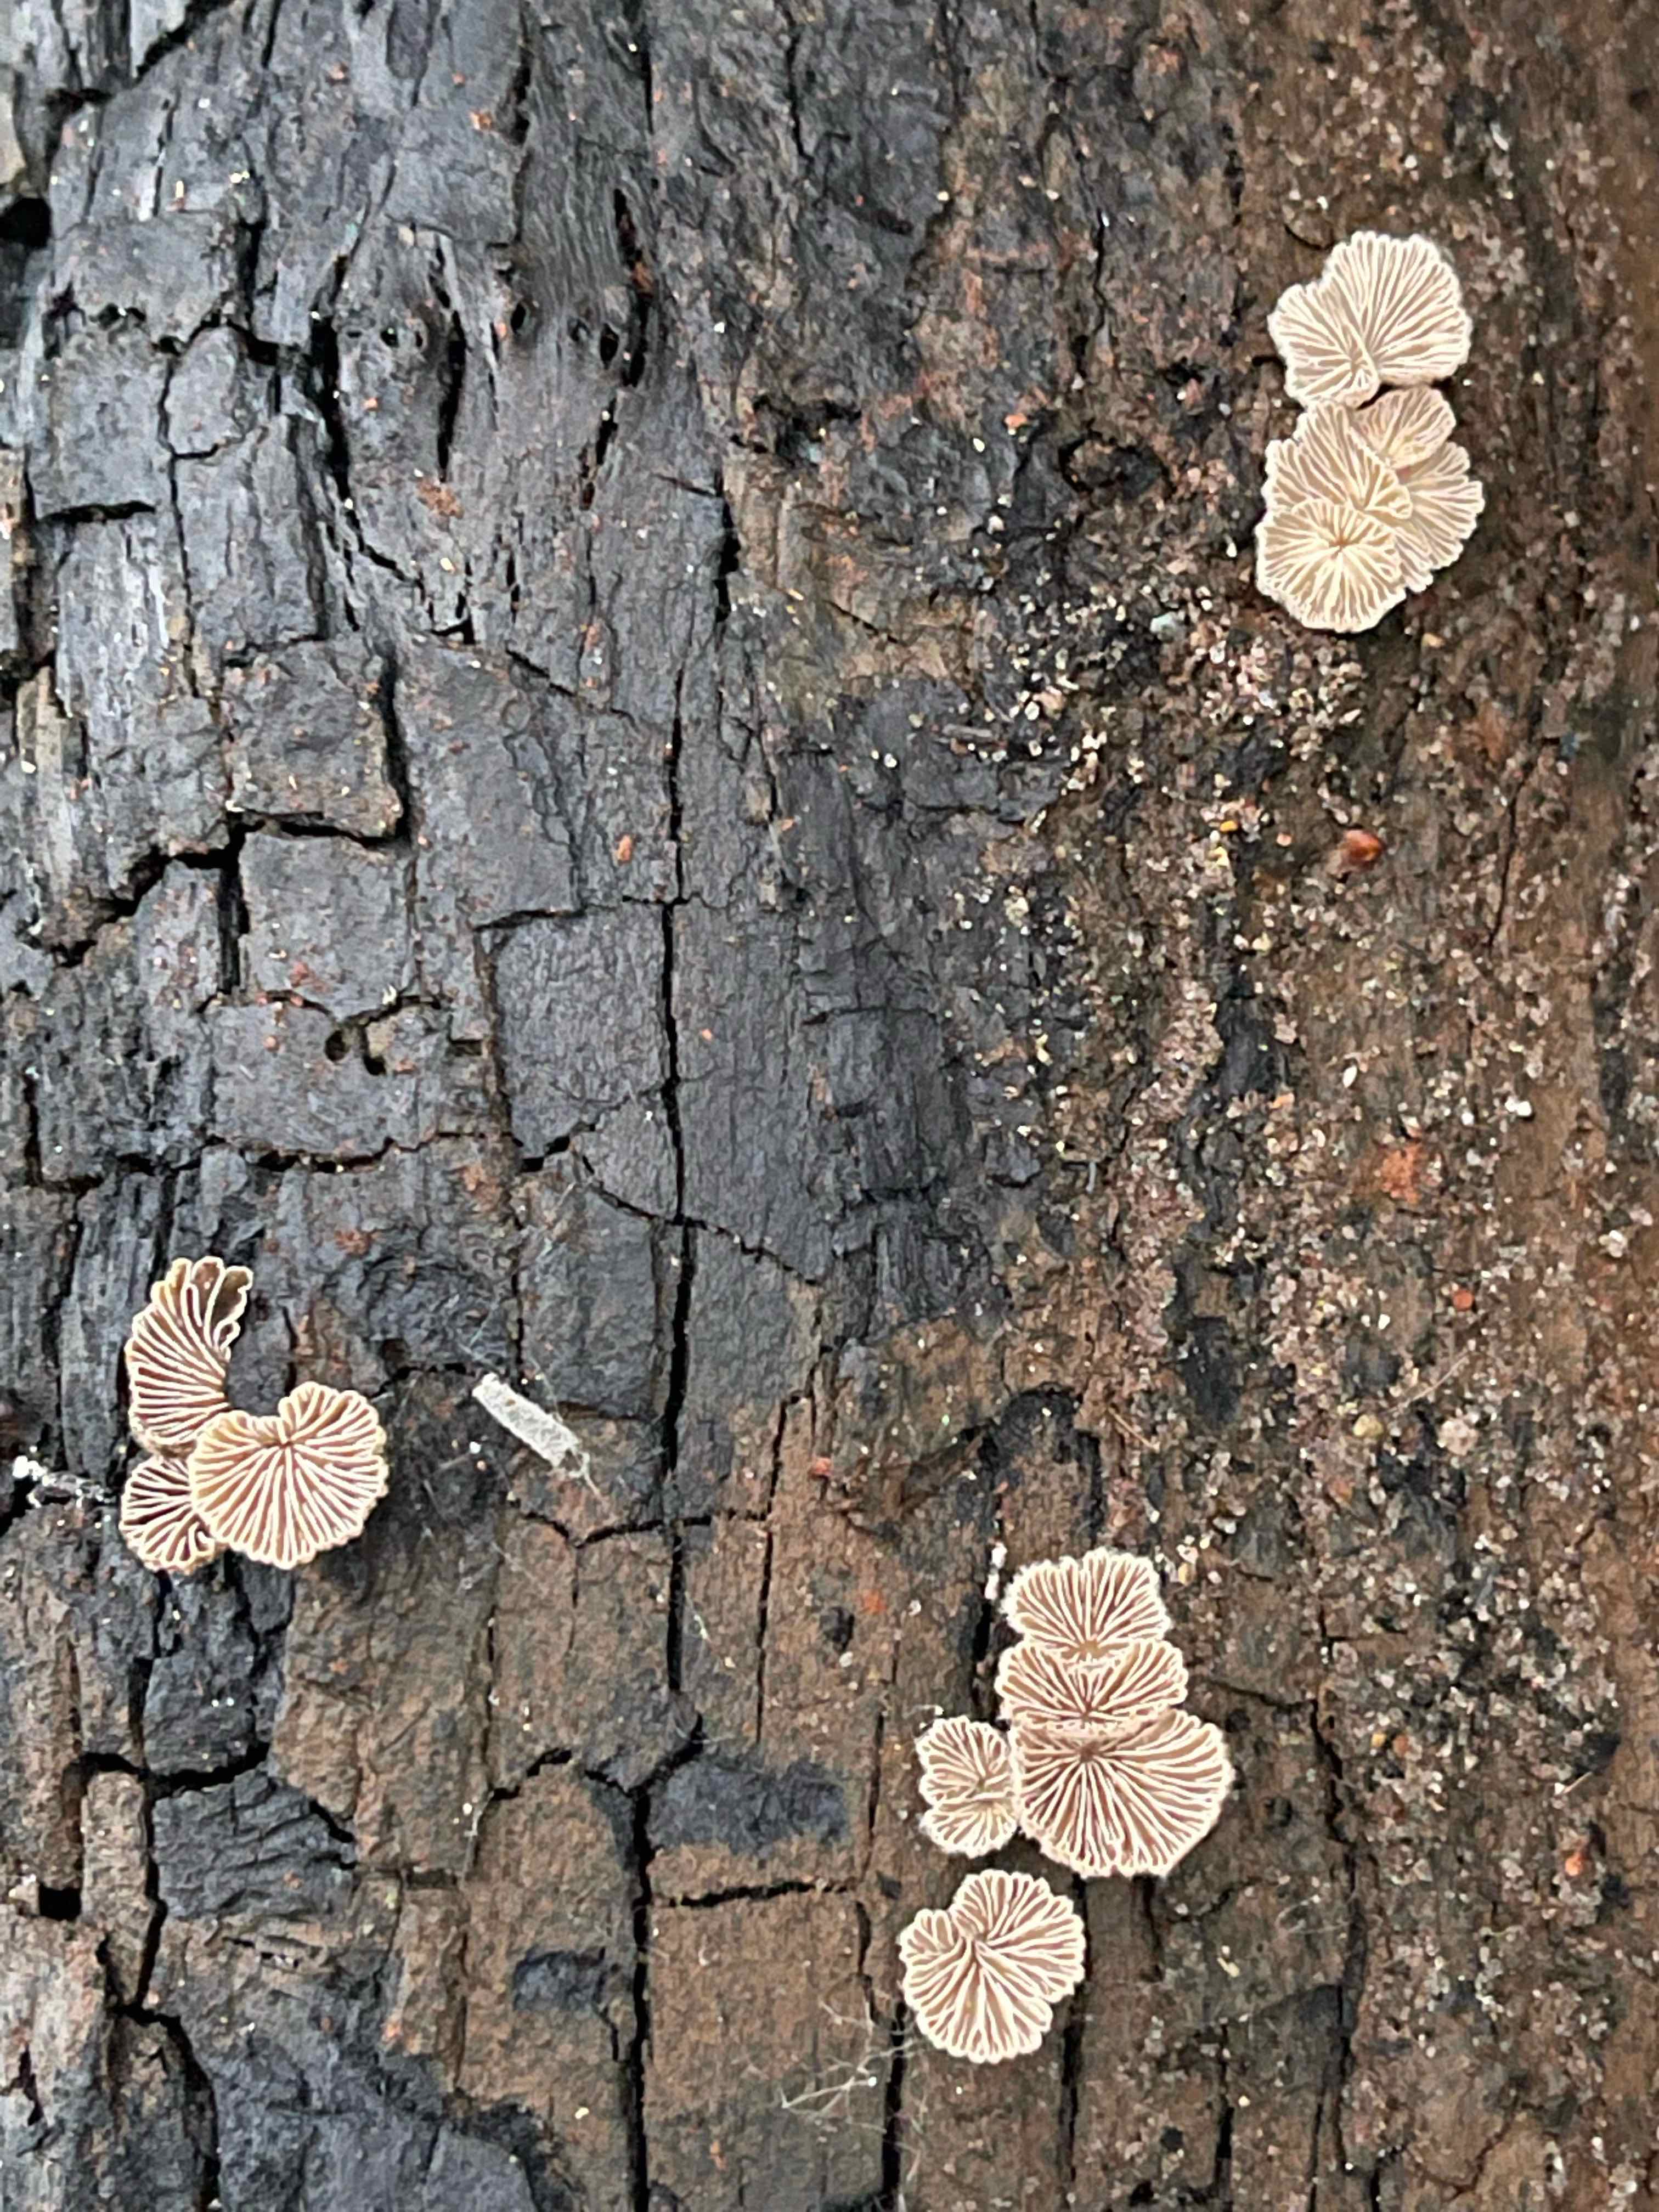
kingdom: Fungi
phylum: Basidiomycota
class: Agaricomycetes
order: Agaricales
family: Schizophyllaceae
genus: Schizophyllum
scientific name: Schizophyllum commune
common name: kløvblad
